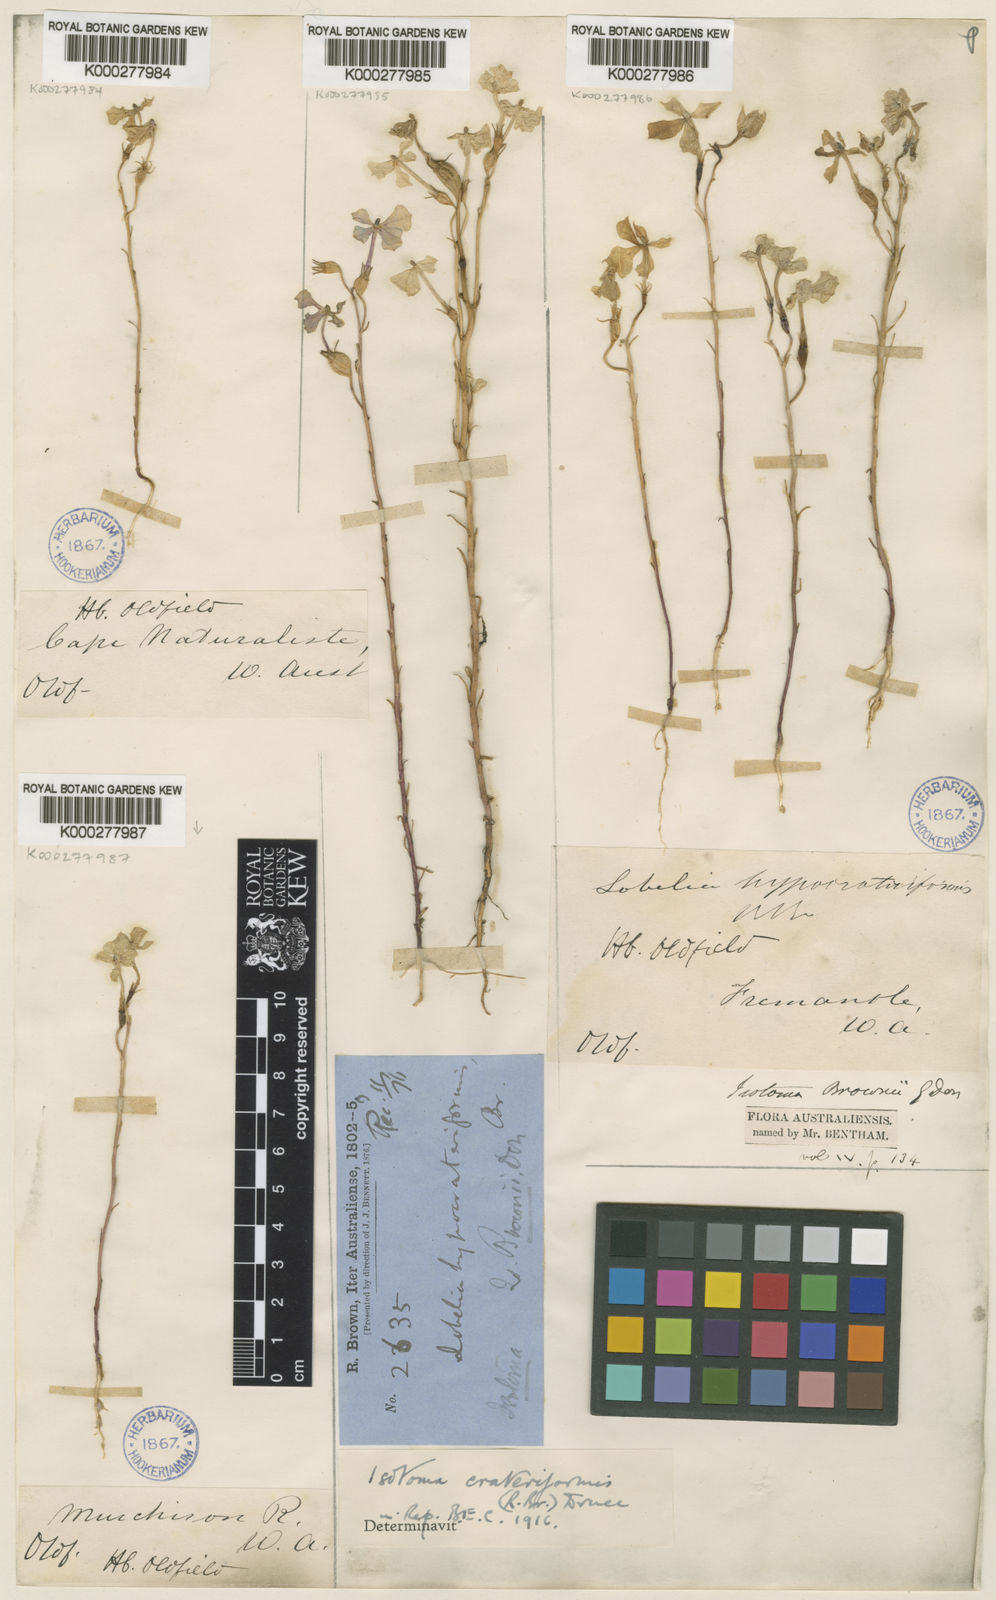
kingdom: Plantae
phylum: Tracheophyta
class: Magnoliopsida
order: Asterales
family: Campanulaceae
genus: Isotoma
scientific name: Isotoma
